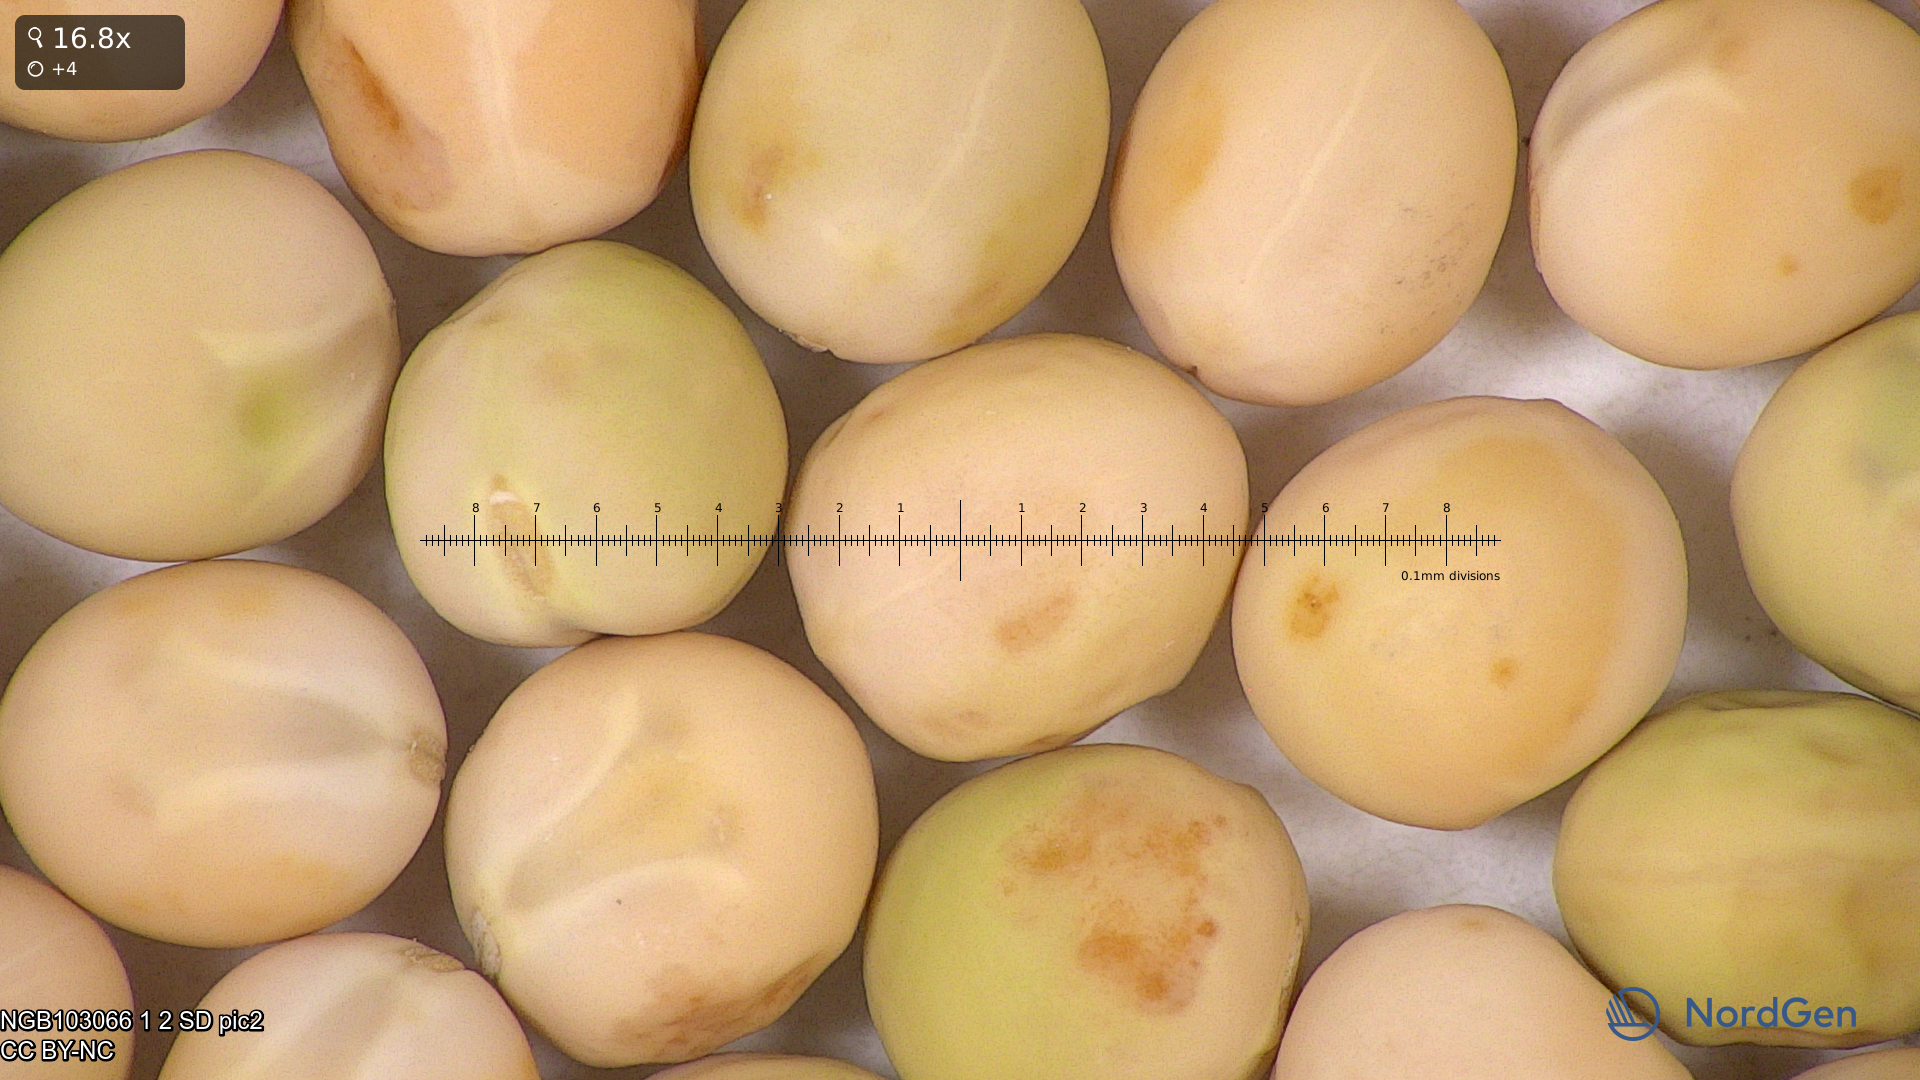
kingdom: Plantae
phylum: Tracheophyta
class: Magnoliopsida
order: Fabales
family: Fabaceae
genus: Lathyrus
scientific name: Lathyrus oleraceus
